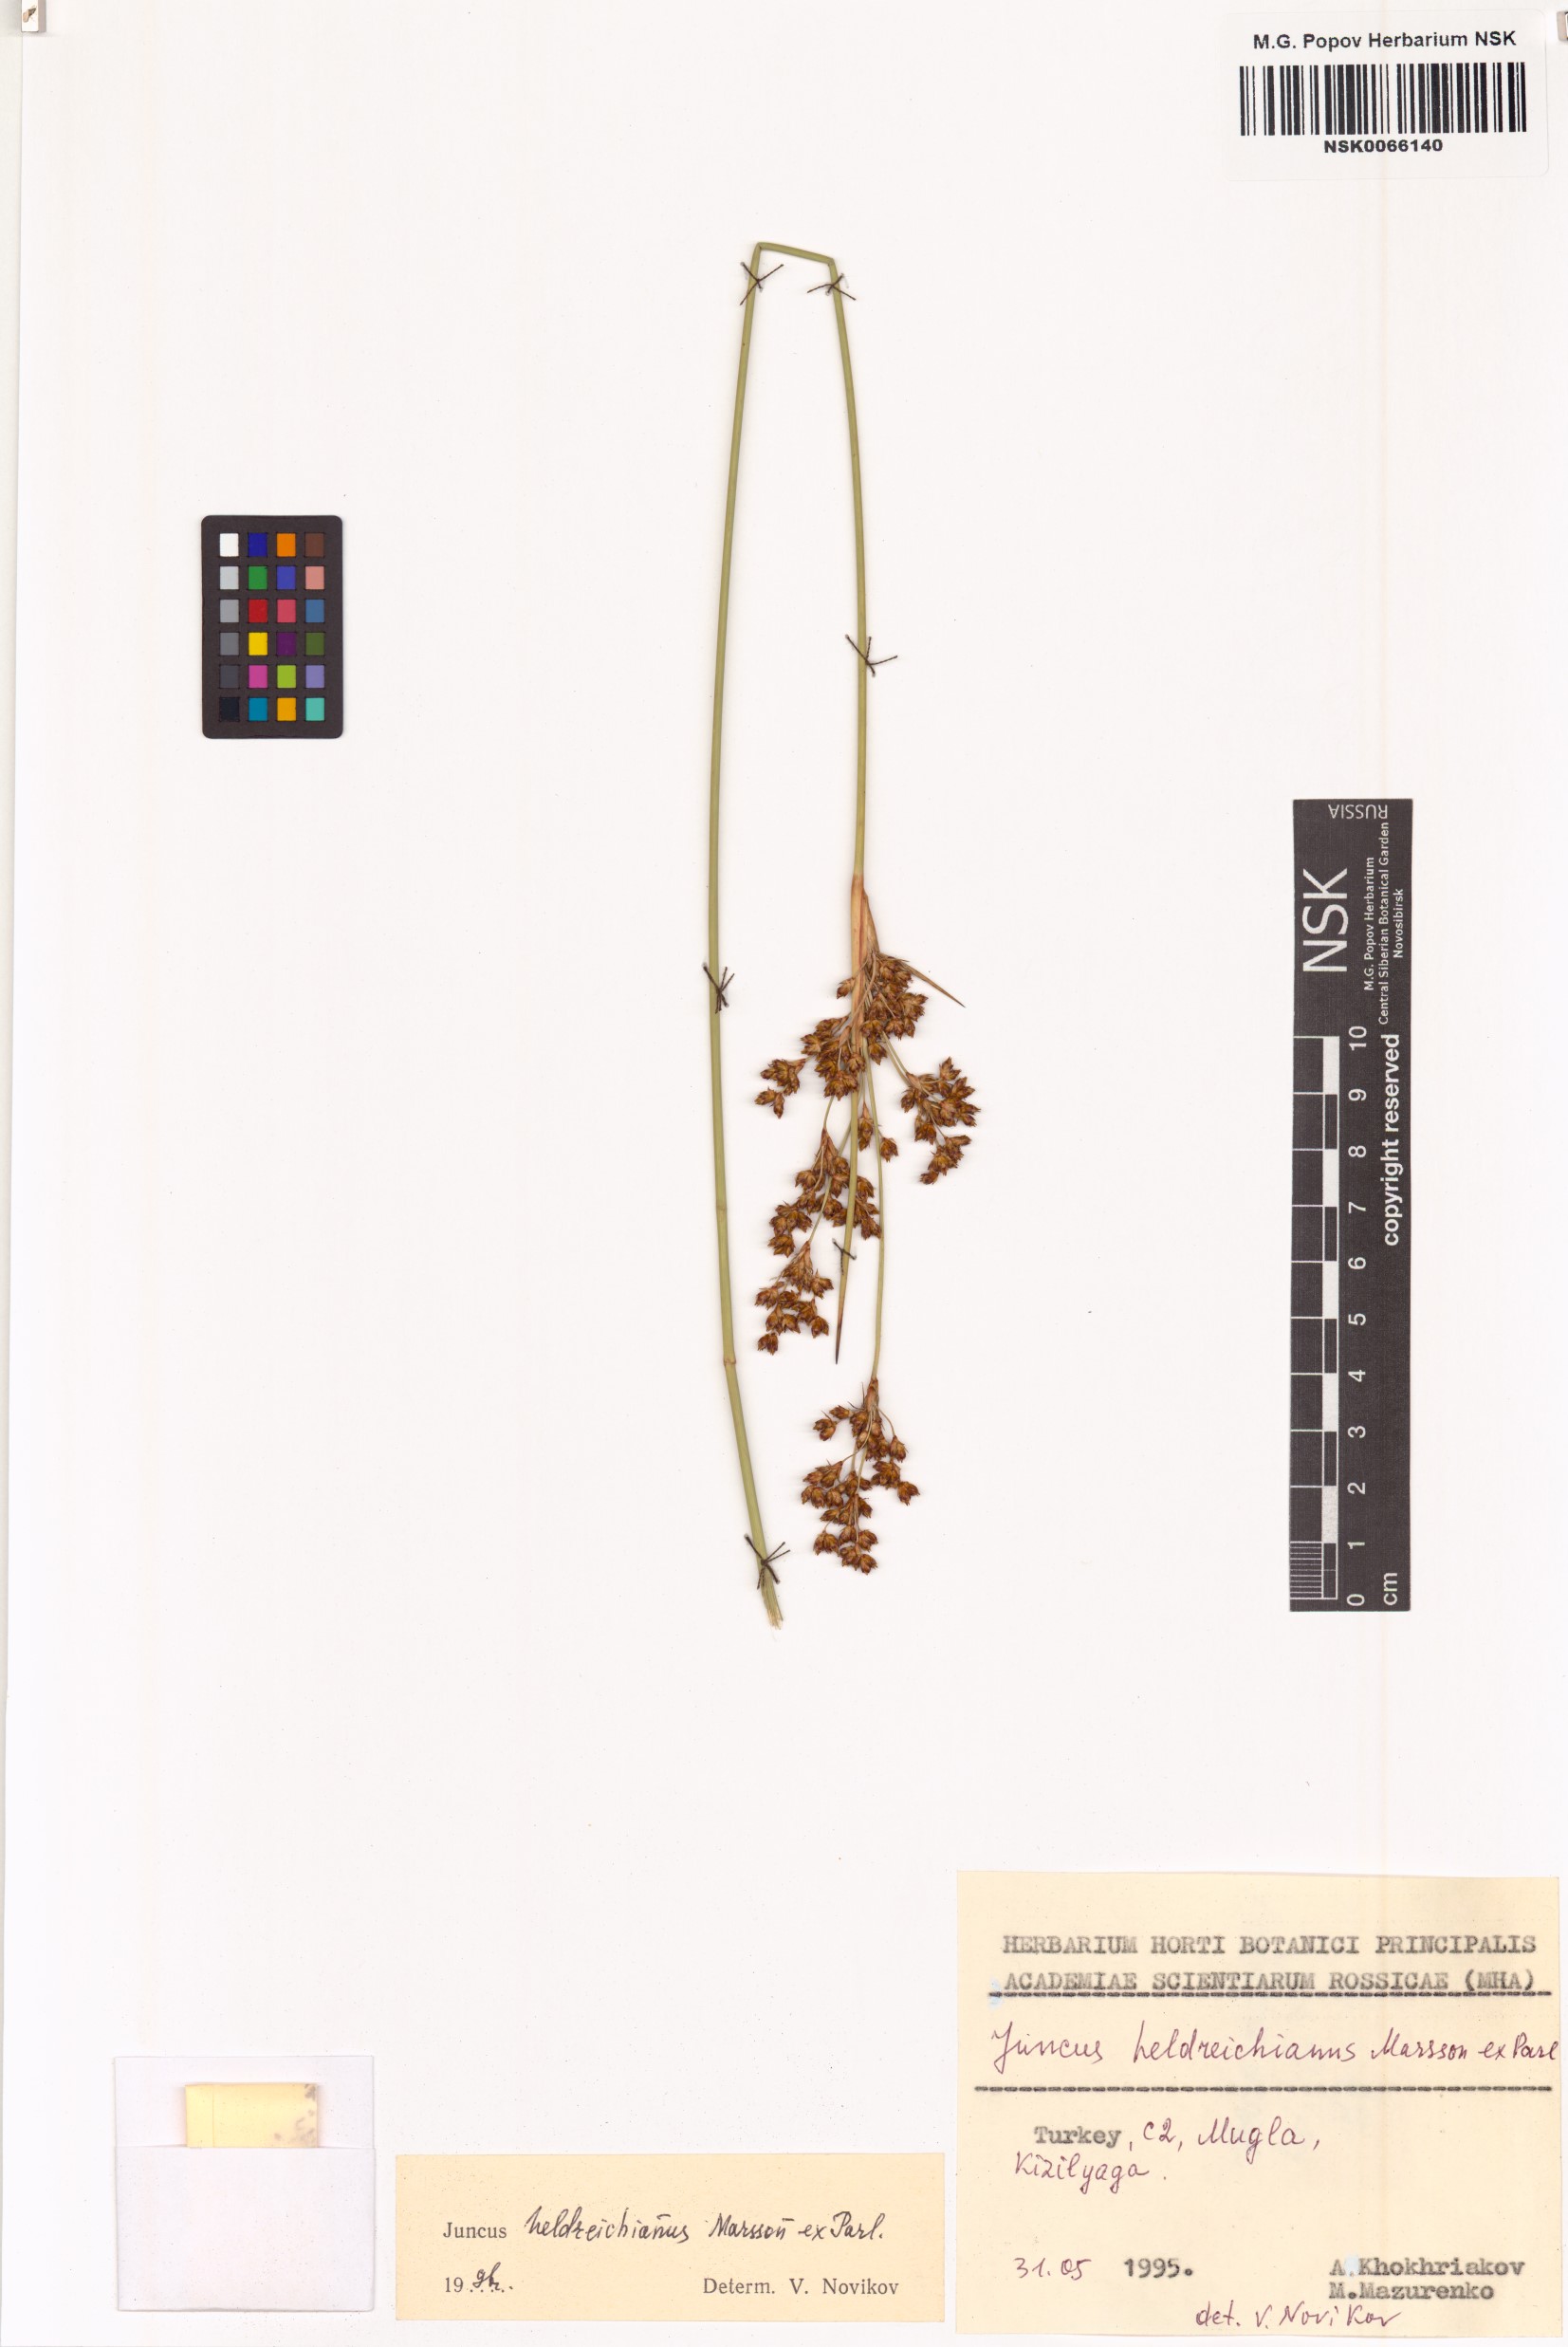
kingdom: Plantae
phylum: Tracheophyta
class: Liliopsida
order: Poales
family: Juncaceae
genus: Juncus
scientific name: Juncus heldreichianus
